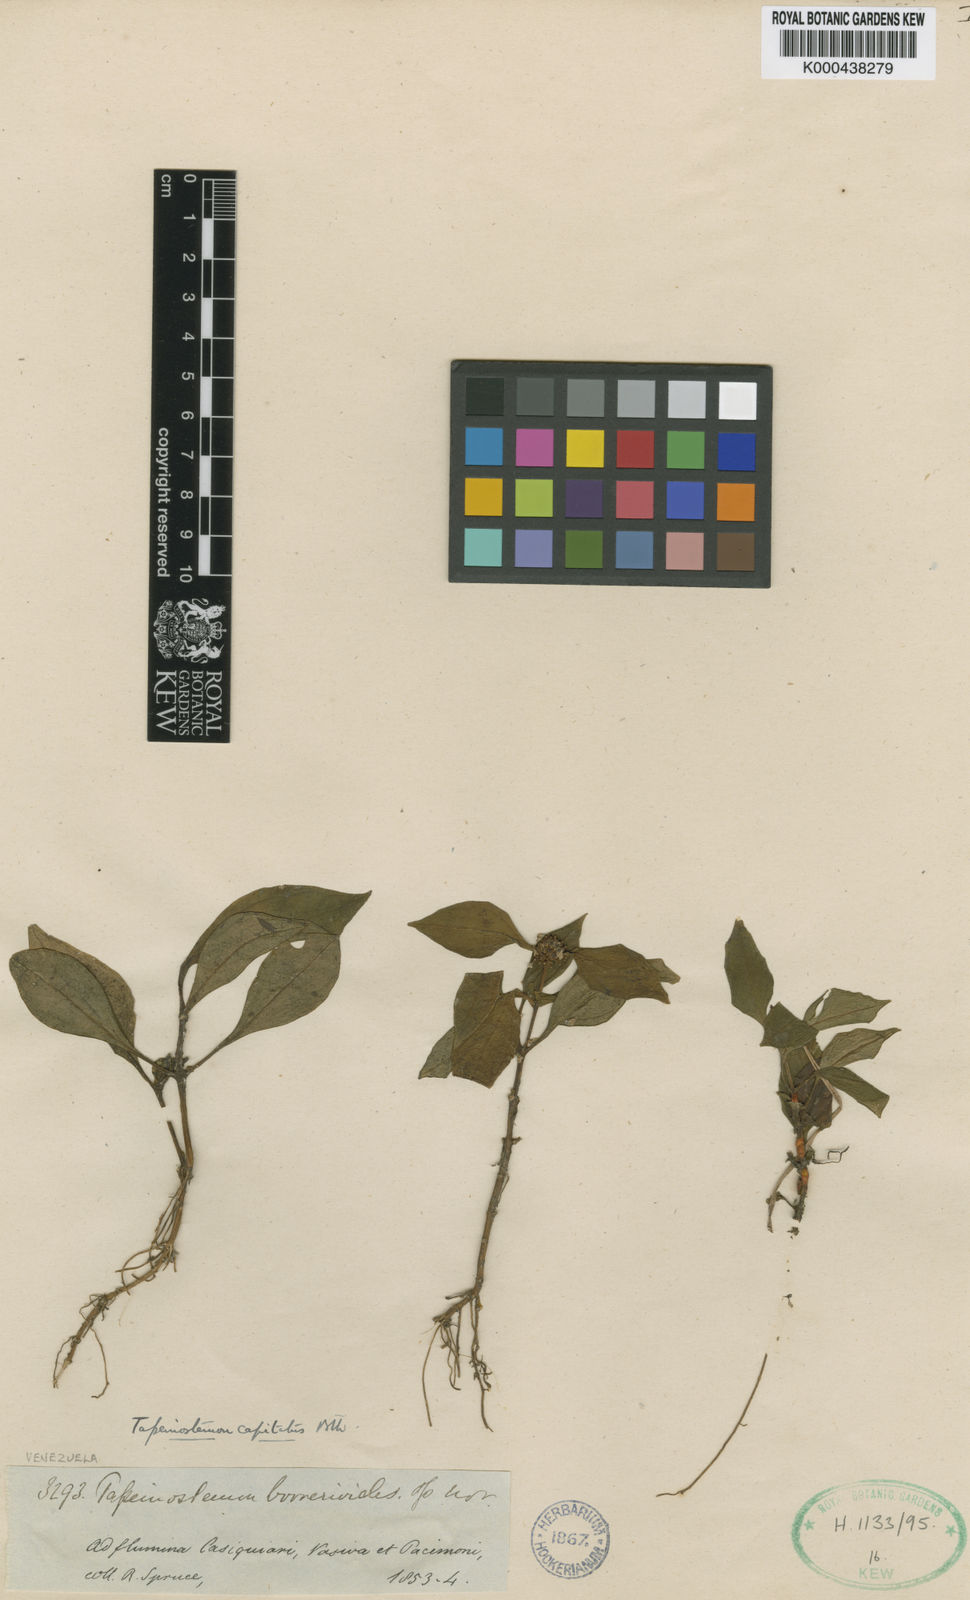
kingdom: Plantae
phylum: Tracheophyta
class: Magnoliopsida
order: Gentianales
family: Gentianaceae
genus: Tapeinostemon
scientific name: Tapeinostemon sessiliflorus
